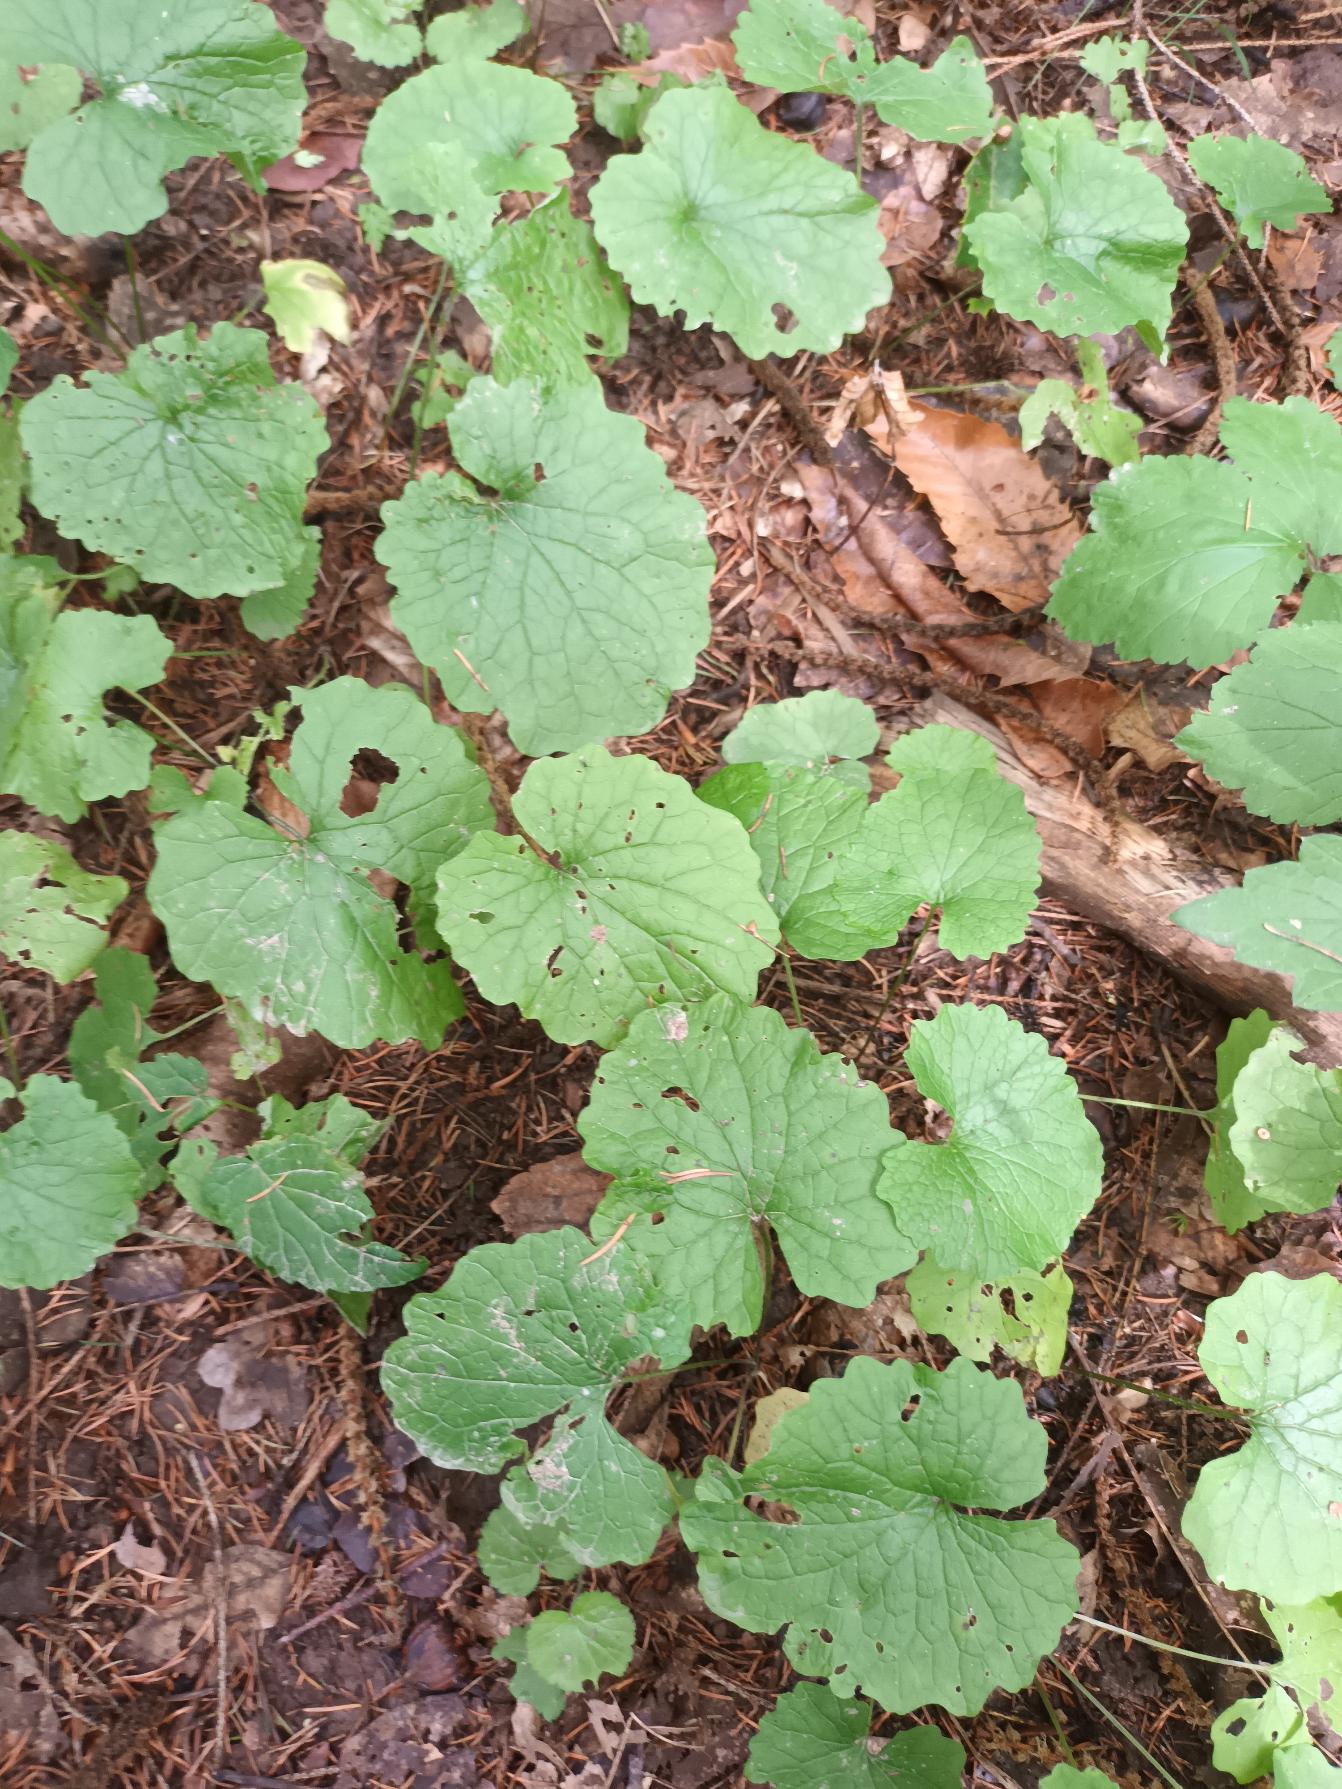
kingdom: Plantae
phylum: Tracheophyta
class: Magnoliopsida
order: Brassicales
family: Brassicaceae
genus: Alliaria
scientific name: Alliaria petiolata
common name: Løgkarse
